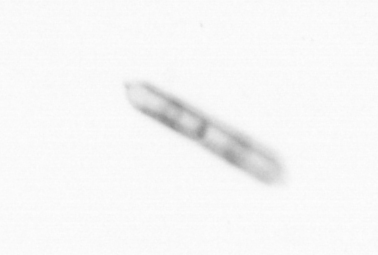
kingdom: Chromista
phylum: Ochrophyta
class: Bacillariophyceae
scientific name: Bacillariophyceae
